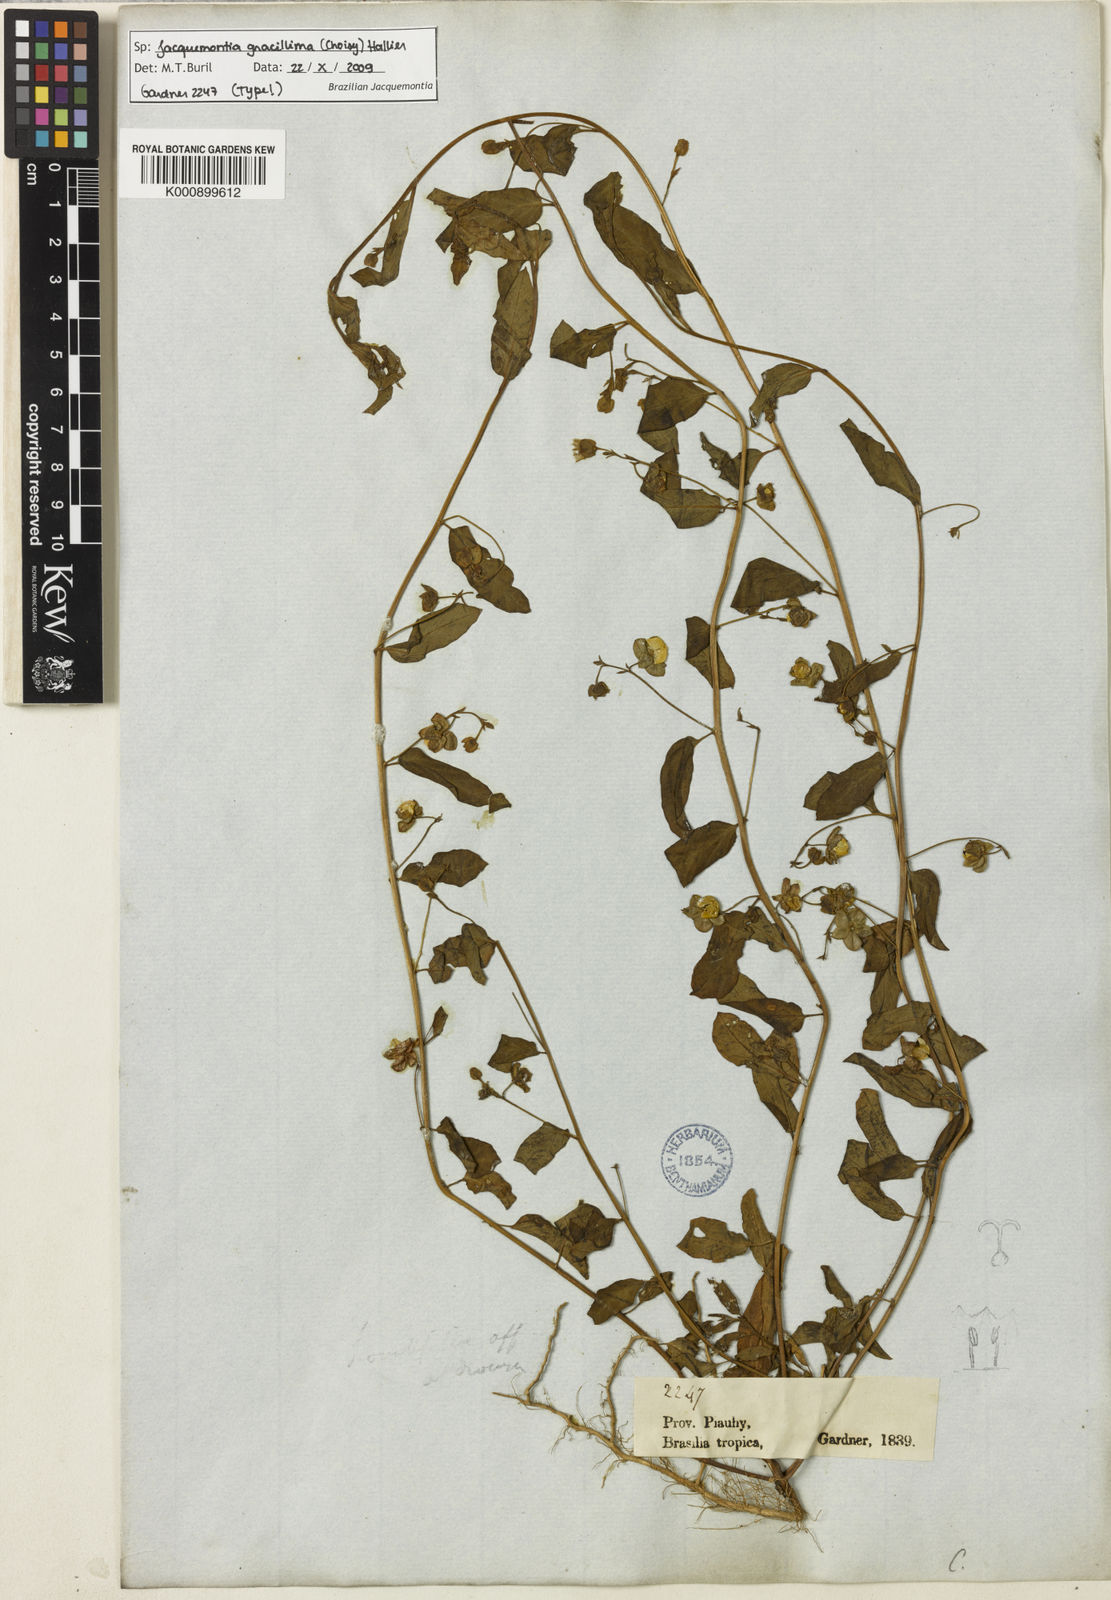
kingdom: Plantae
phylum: Tracheophyta
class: Magnoliopsida
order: Solanales
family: Convolvulaceae
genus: Jacquemontia
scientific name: Jacquemontia gracillima
